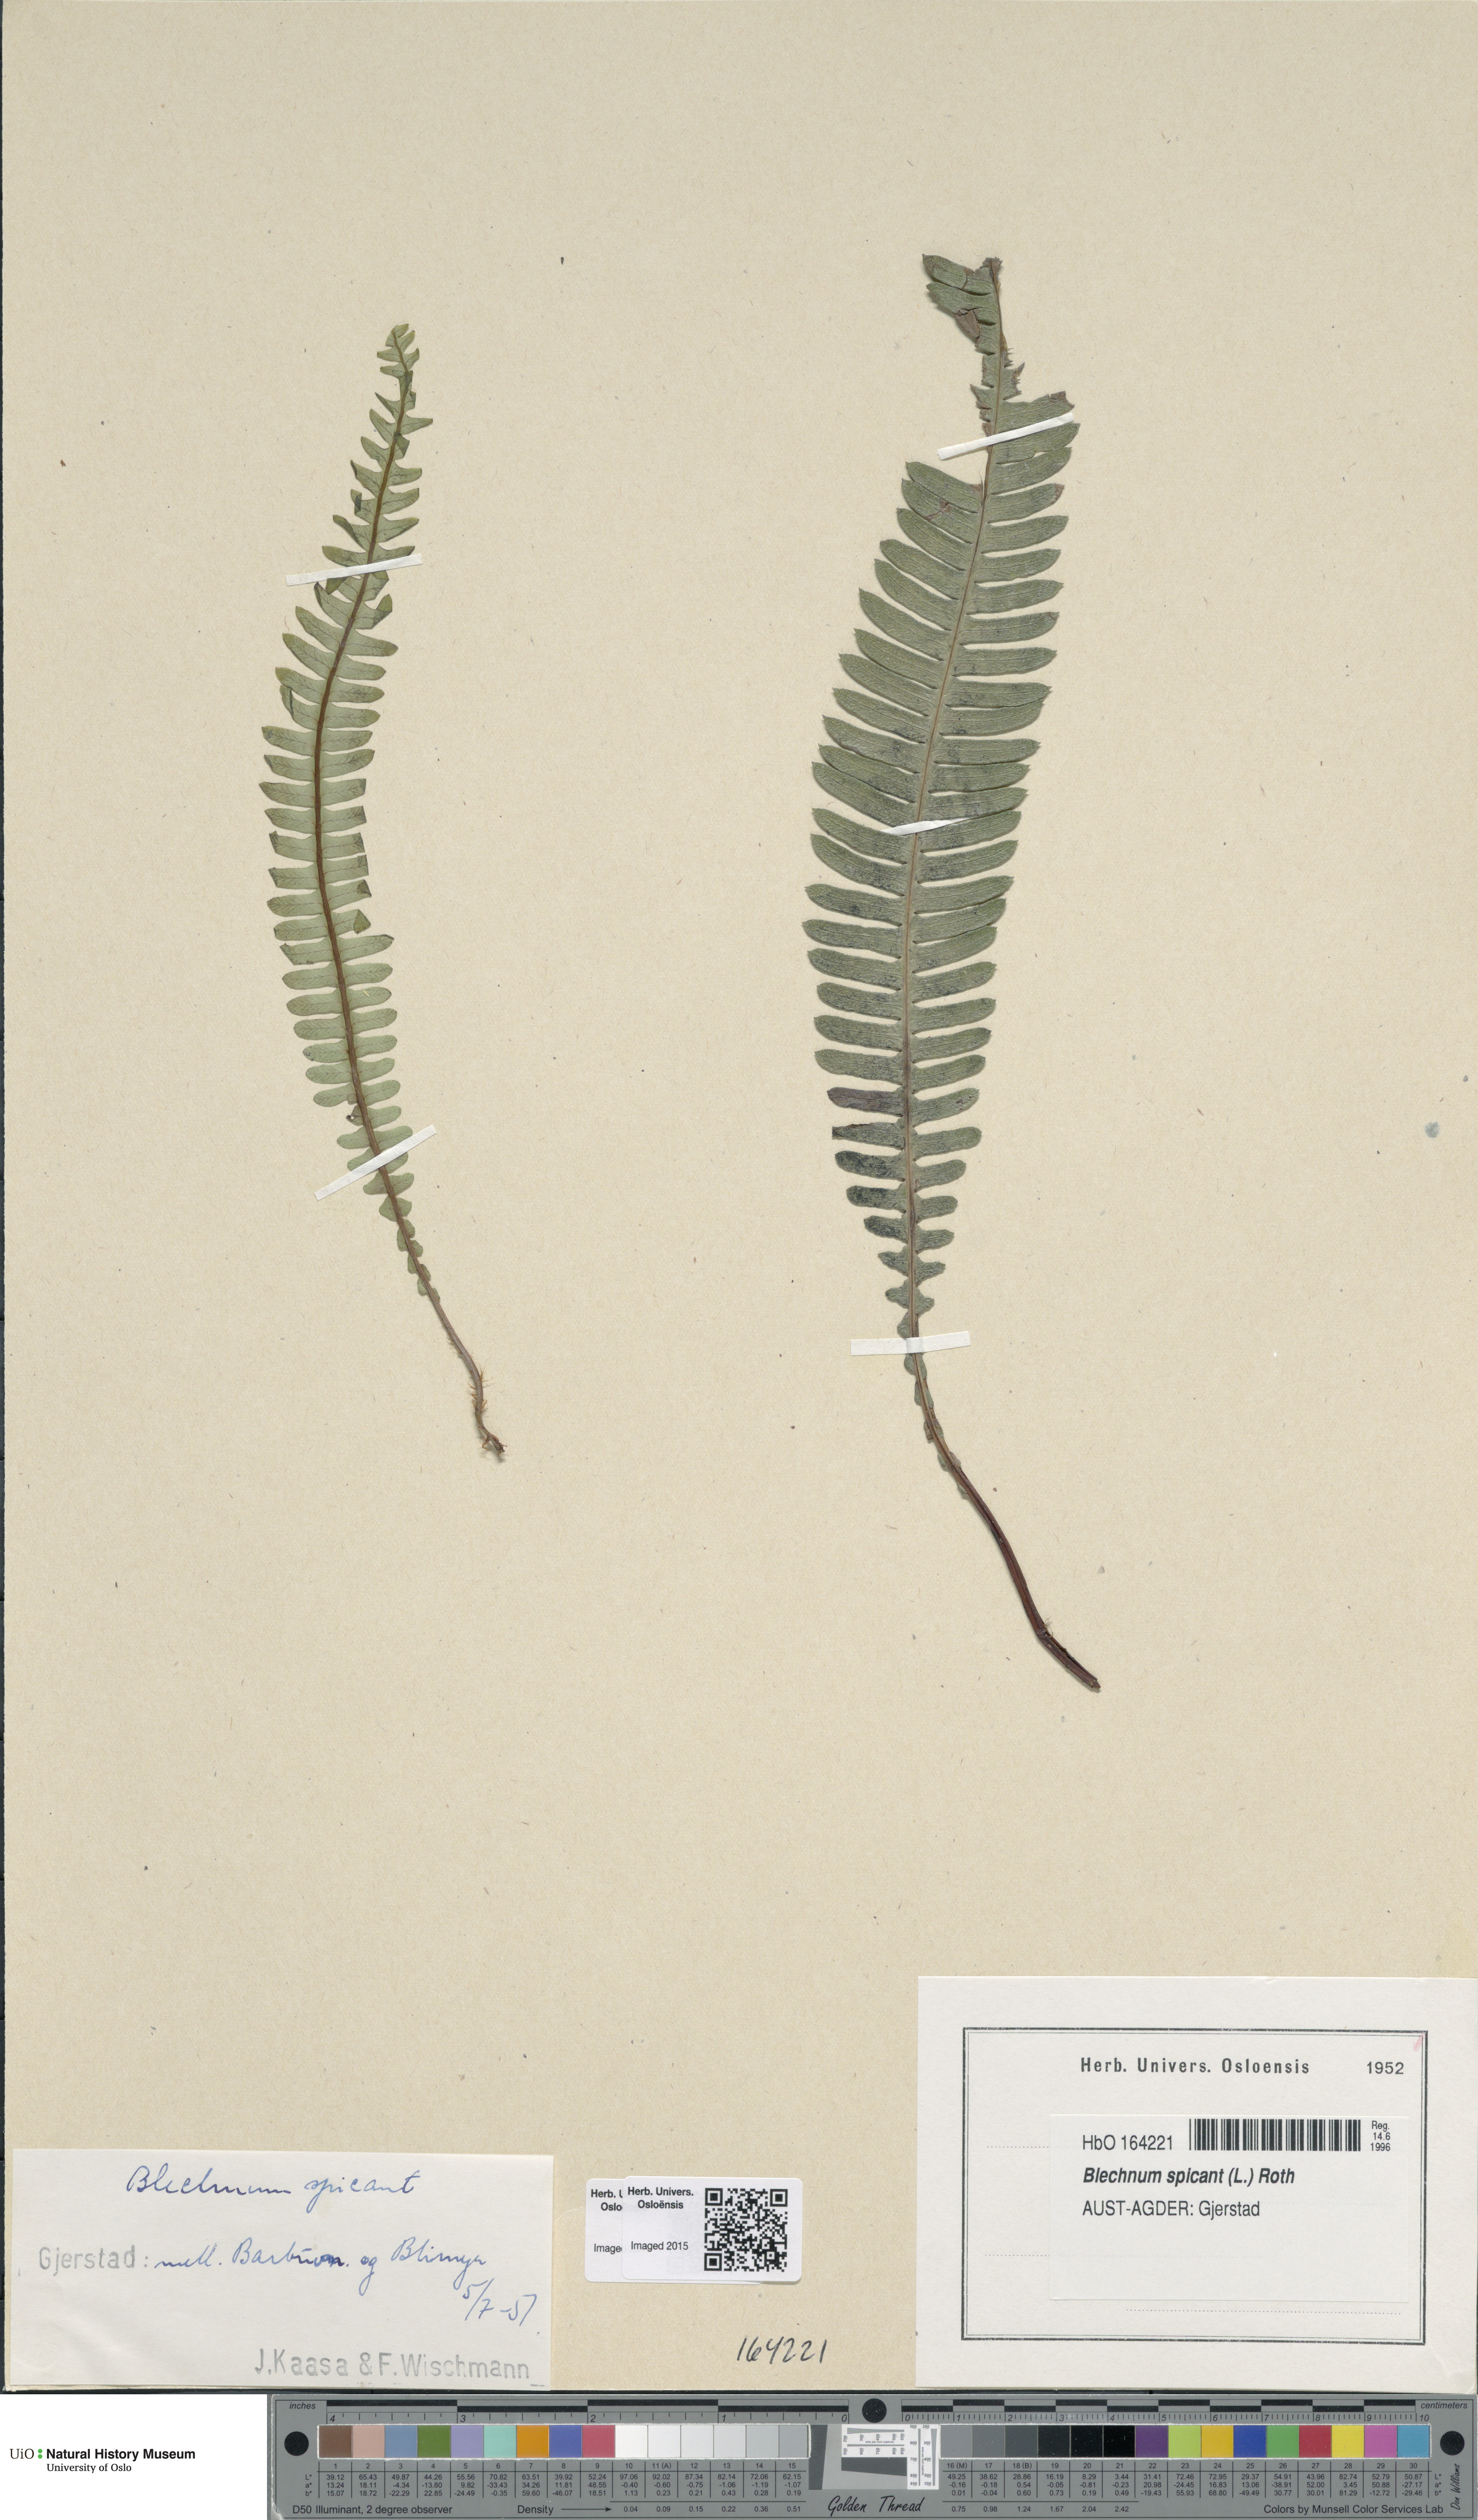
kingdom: Plantae
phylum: Tracheophyta
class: Polypodiopsida
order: Polypodiales
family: Blechnaceae
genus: Struthiopteris
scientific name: Struthiopteris spicant
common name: Deer fern
